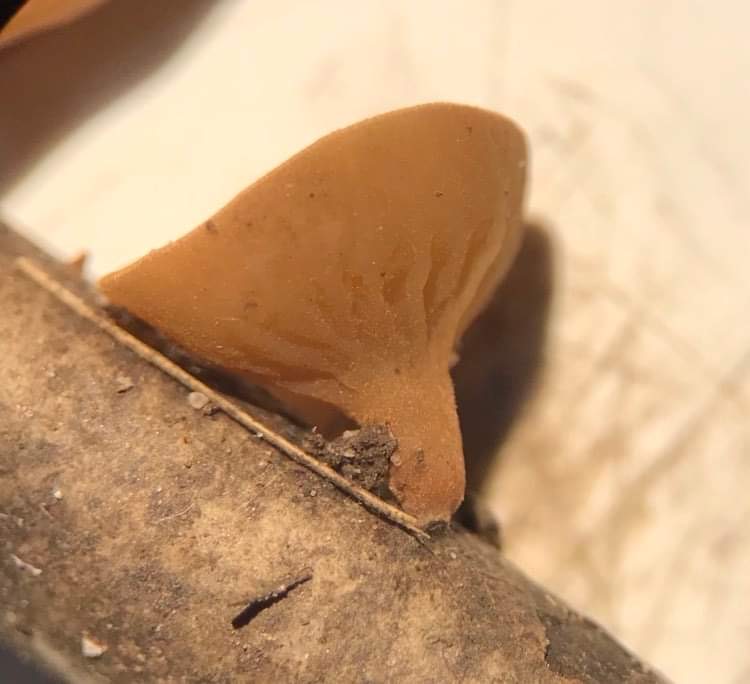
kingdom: Fungi
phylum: Ascomycota
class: Leotiomycetes
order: Helotiales
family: Rutstroemiaceae
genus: Rutstroemia
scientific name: Rutstroemia bolaris
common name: avnbøg-brunskive
